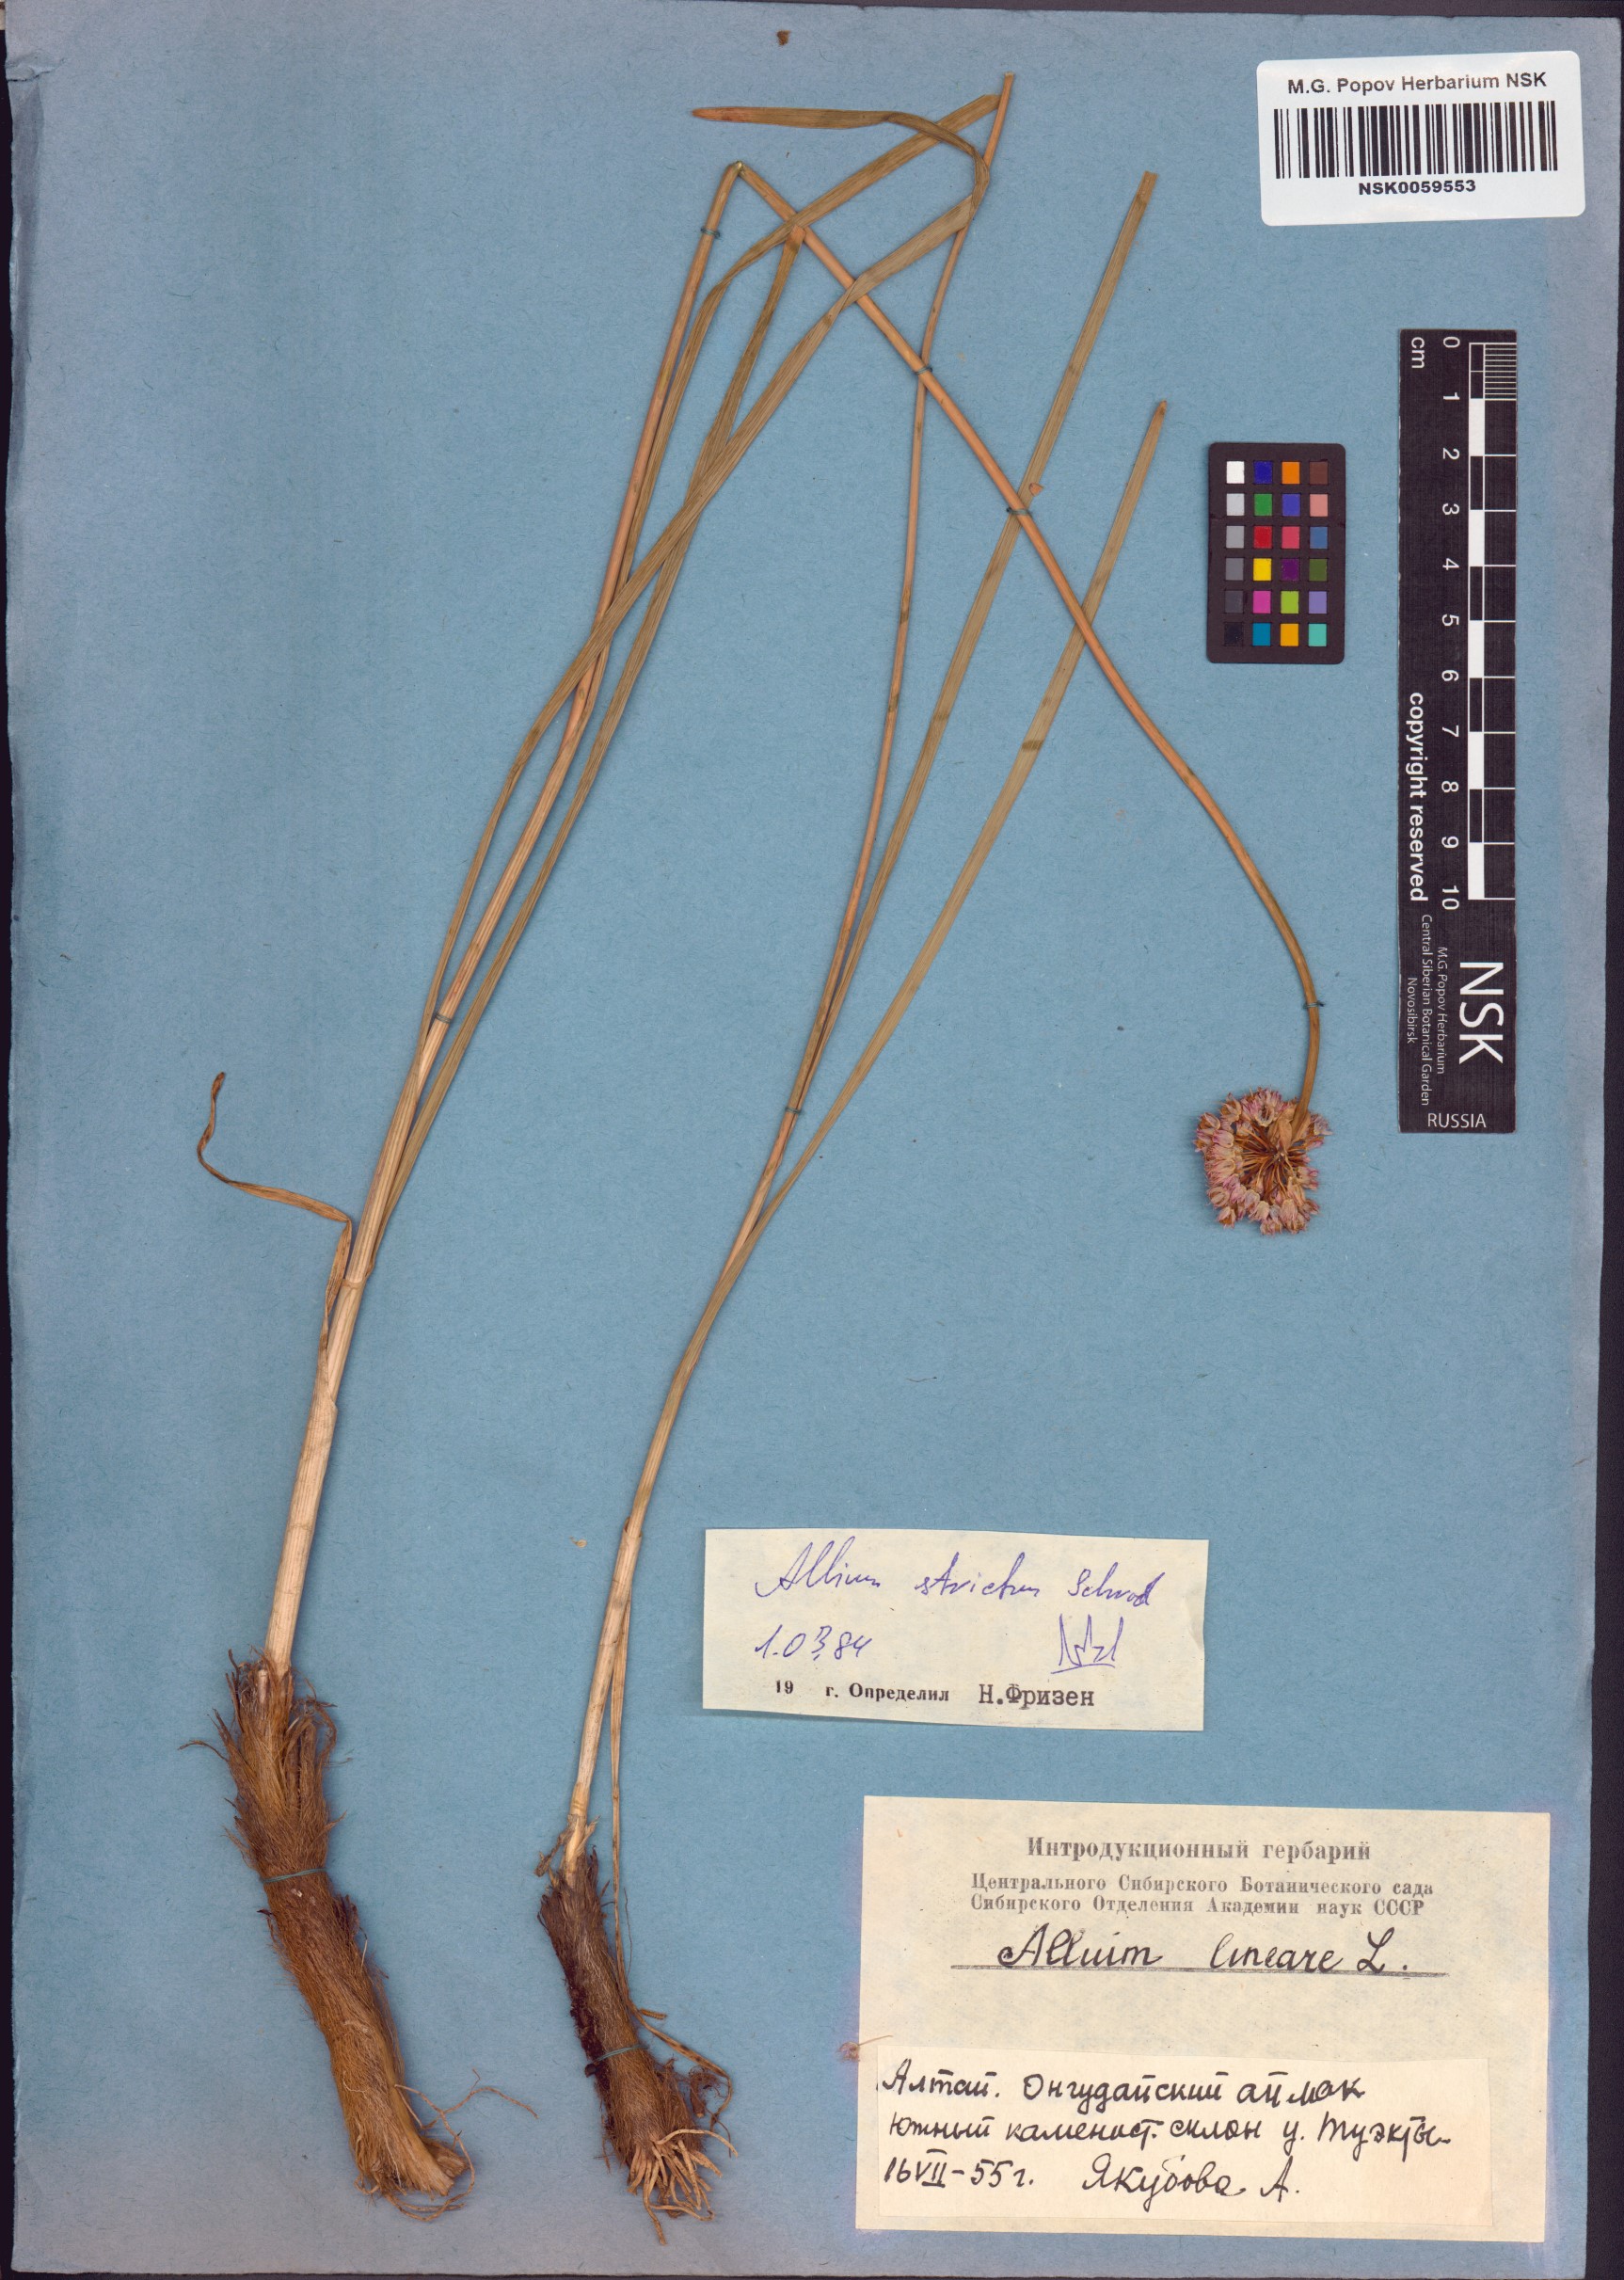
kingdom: Plantae
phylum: Tracheophyta
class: Liliopsida
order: Asparagales
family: Amaryllidaceae
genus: Allium
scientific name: Allium strictum
